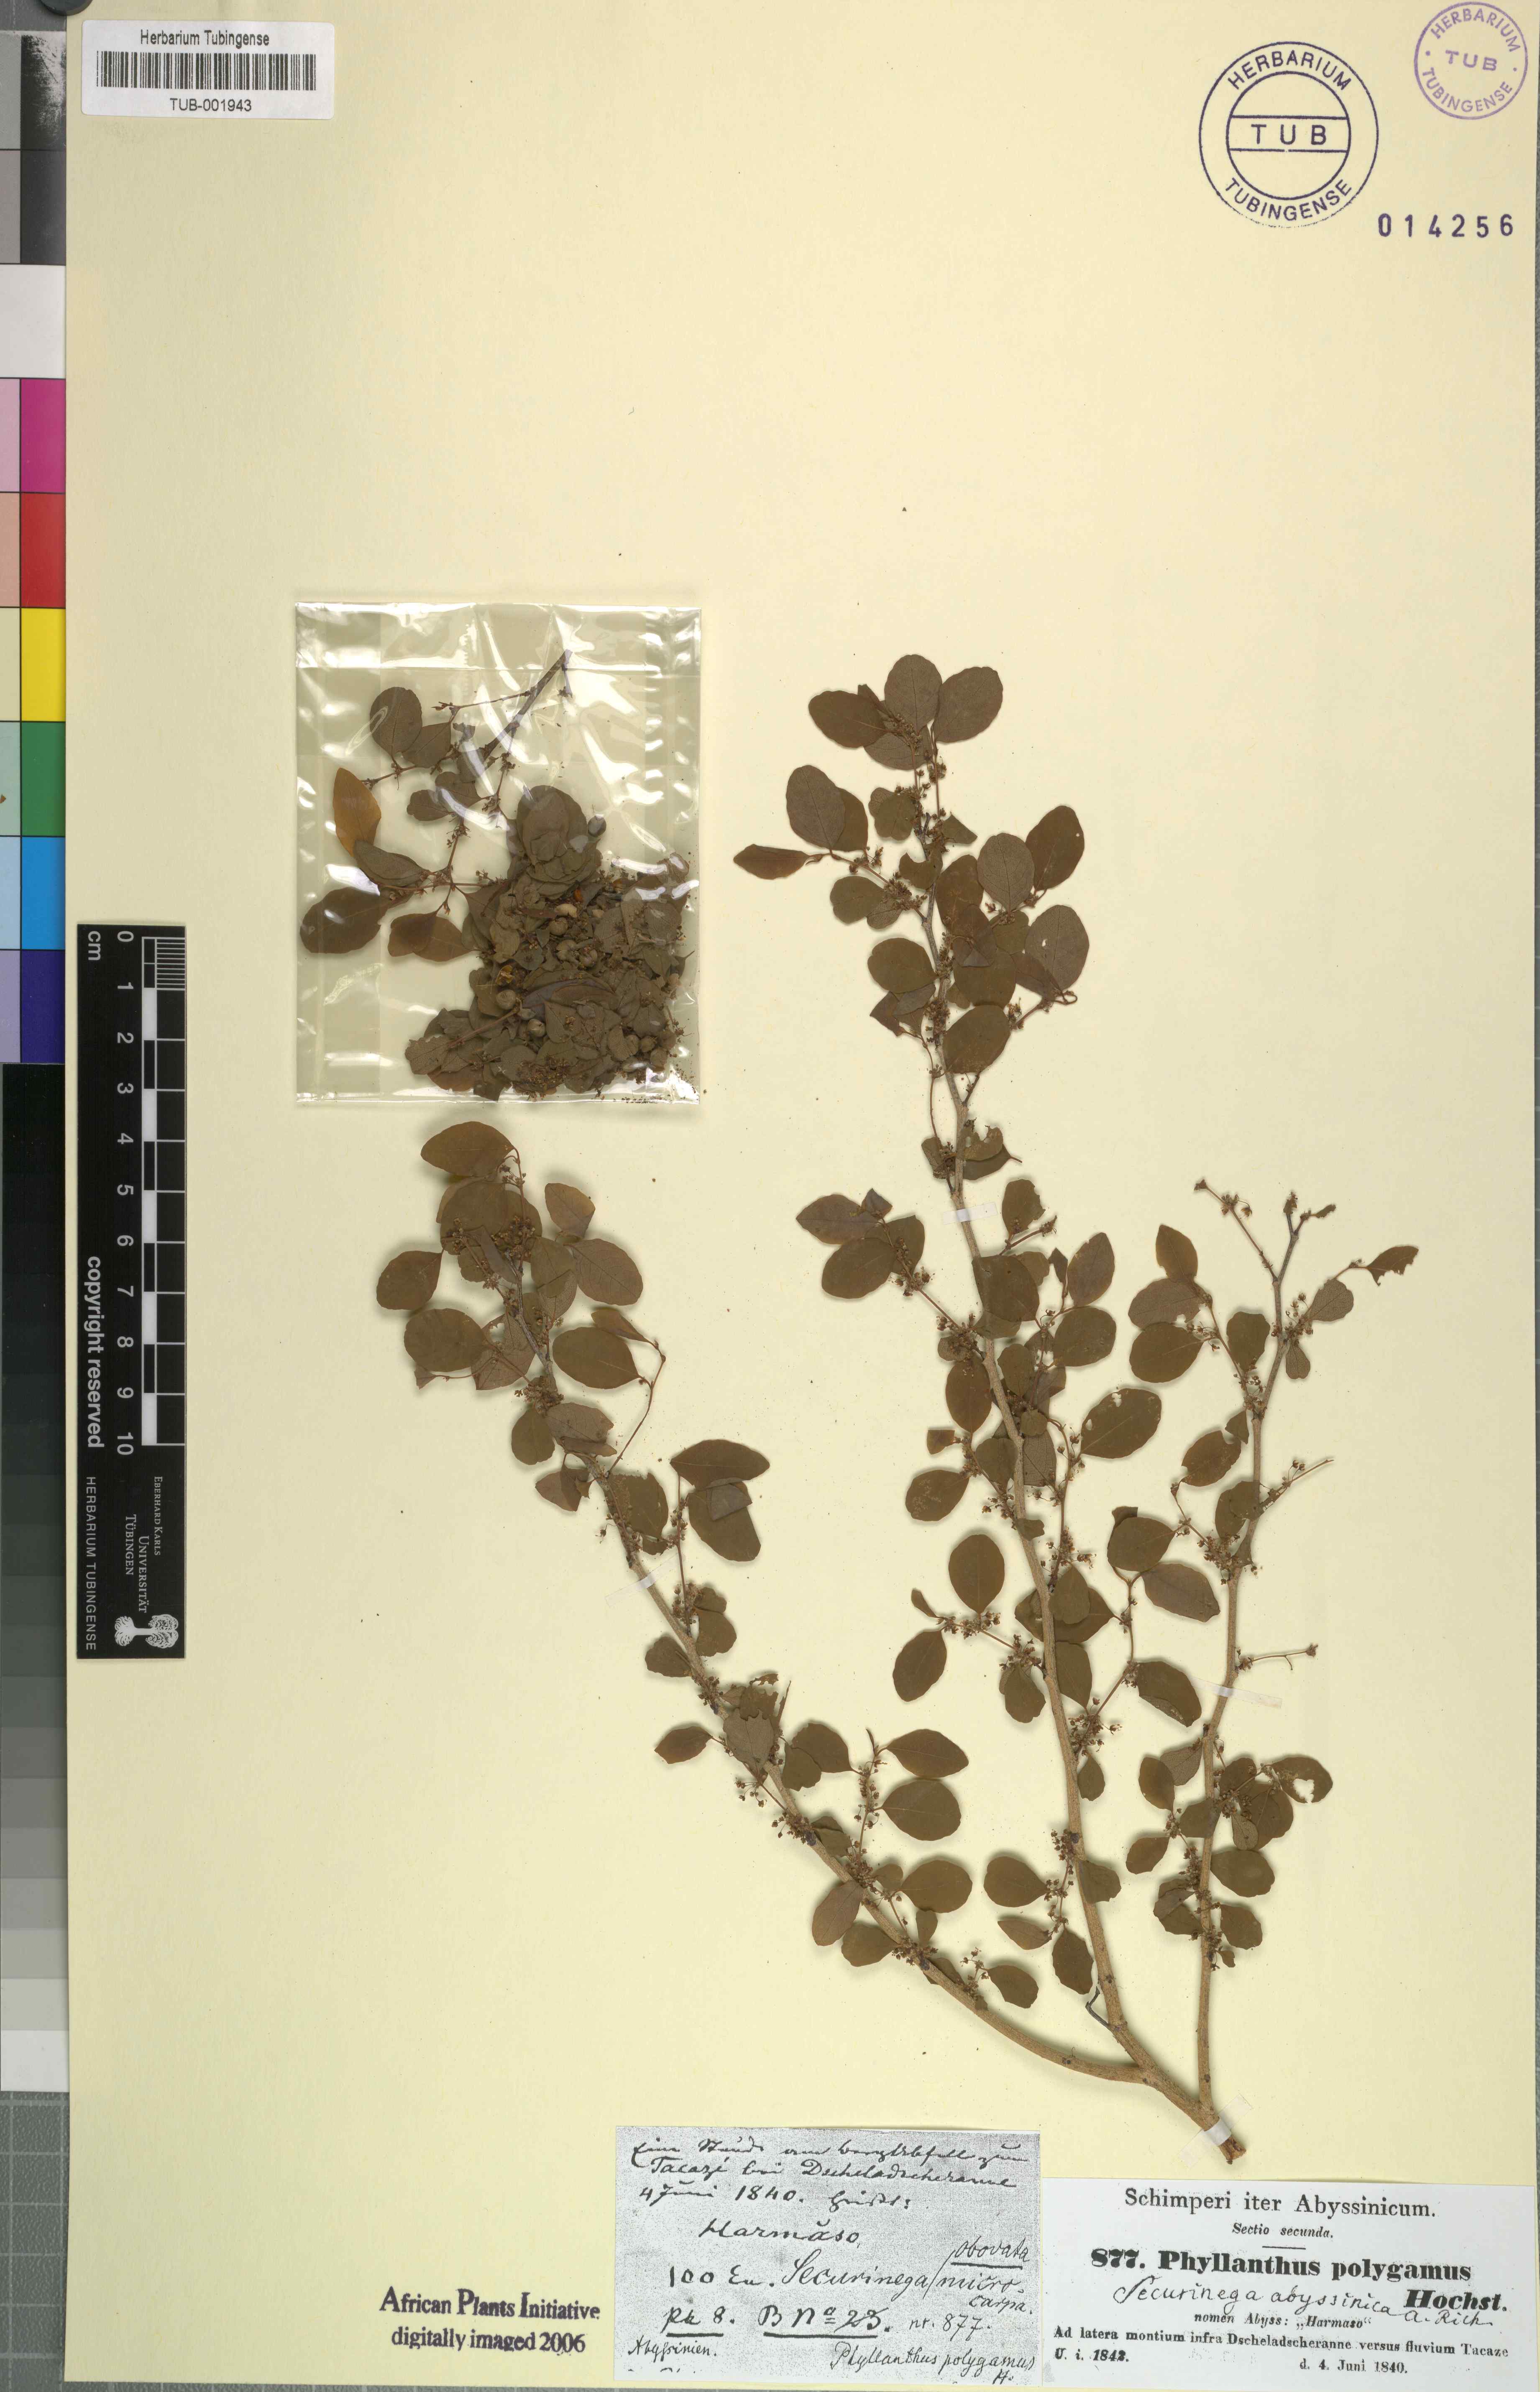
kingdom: Plantae
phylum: Tracheophyta
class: Magnoliopsida
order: Malpighiales
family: Phyllanthaceae
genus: Flueggea
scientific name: Flueggea virosa
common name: Common bushweed
